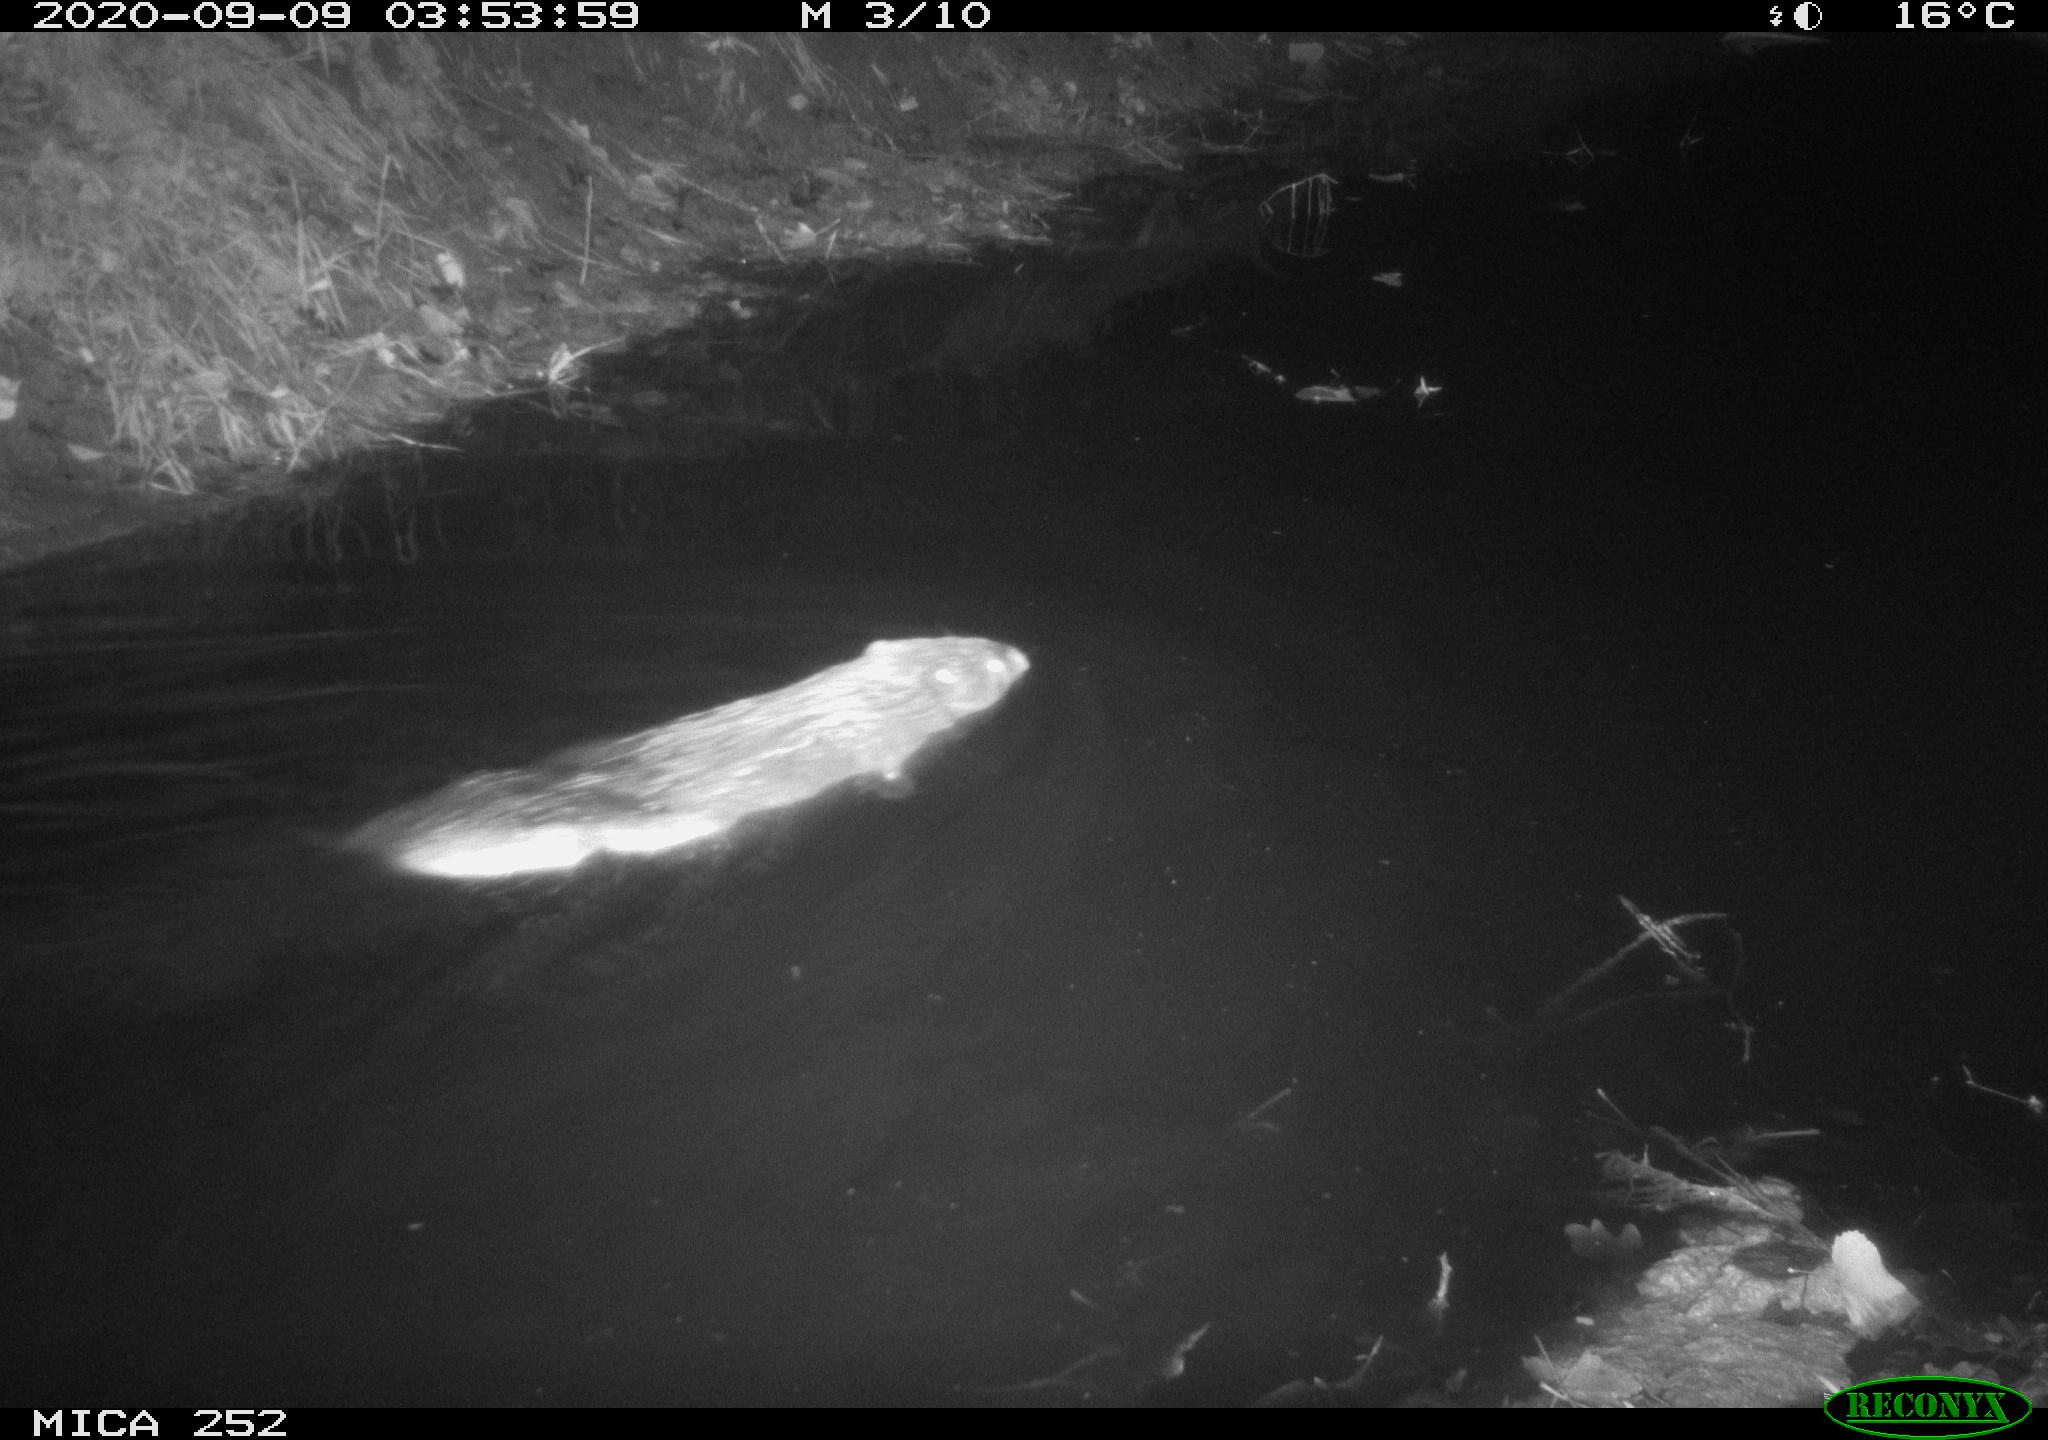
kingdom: Animalia
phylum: Chordata
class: Mammalia
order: Rodentia
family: Castoridae
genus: Castor
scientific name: Castor fiber
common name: Eurasian beaver
